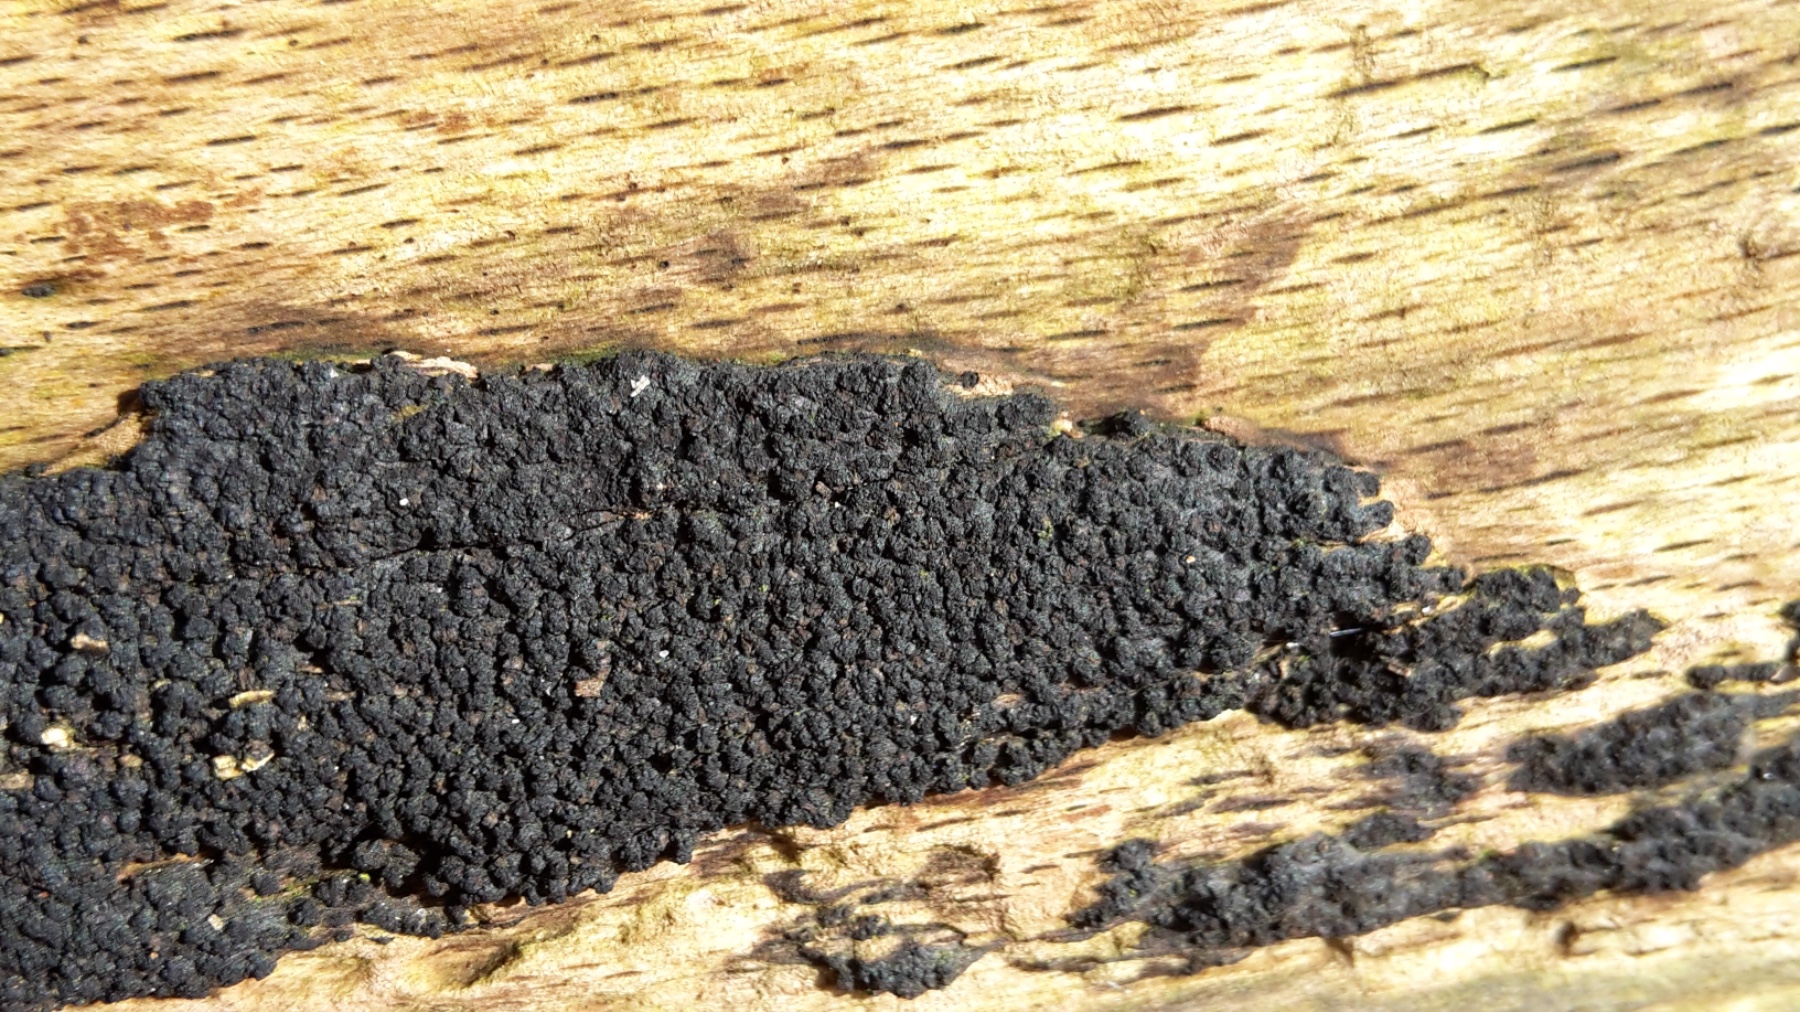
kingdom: Fungi
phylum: Ascomycota
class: Sordariomycetes
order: Xylariales
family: Diatrypaceae
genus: Eutypa
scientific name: Eutypa spinosa
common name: grov kulskorpe
